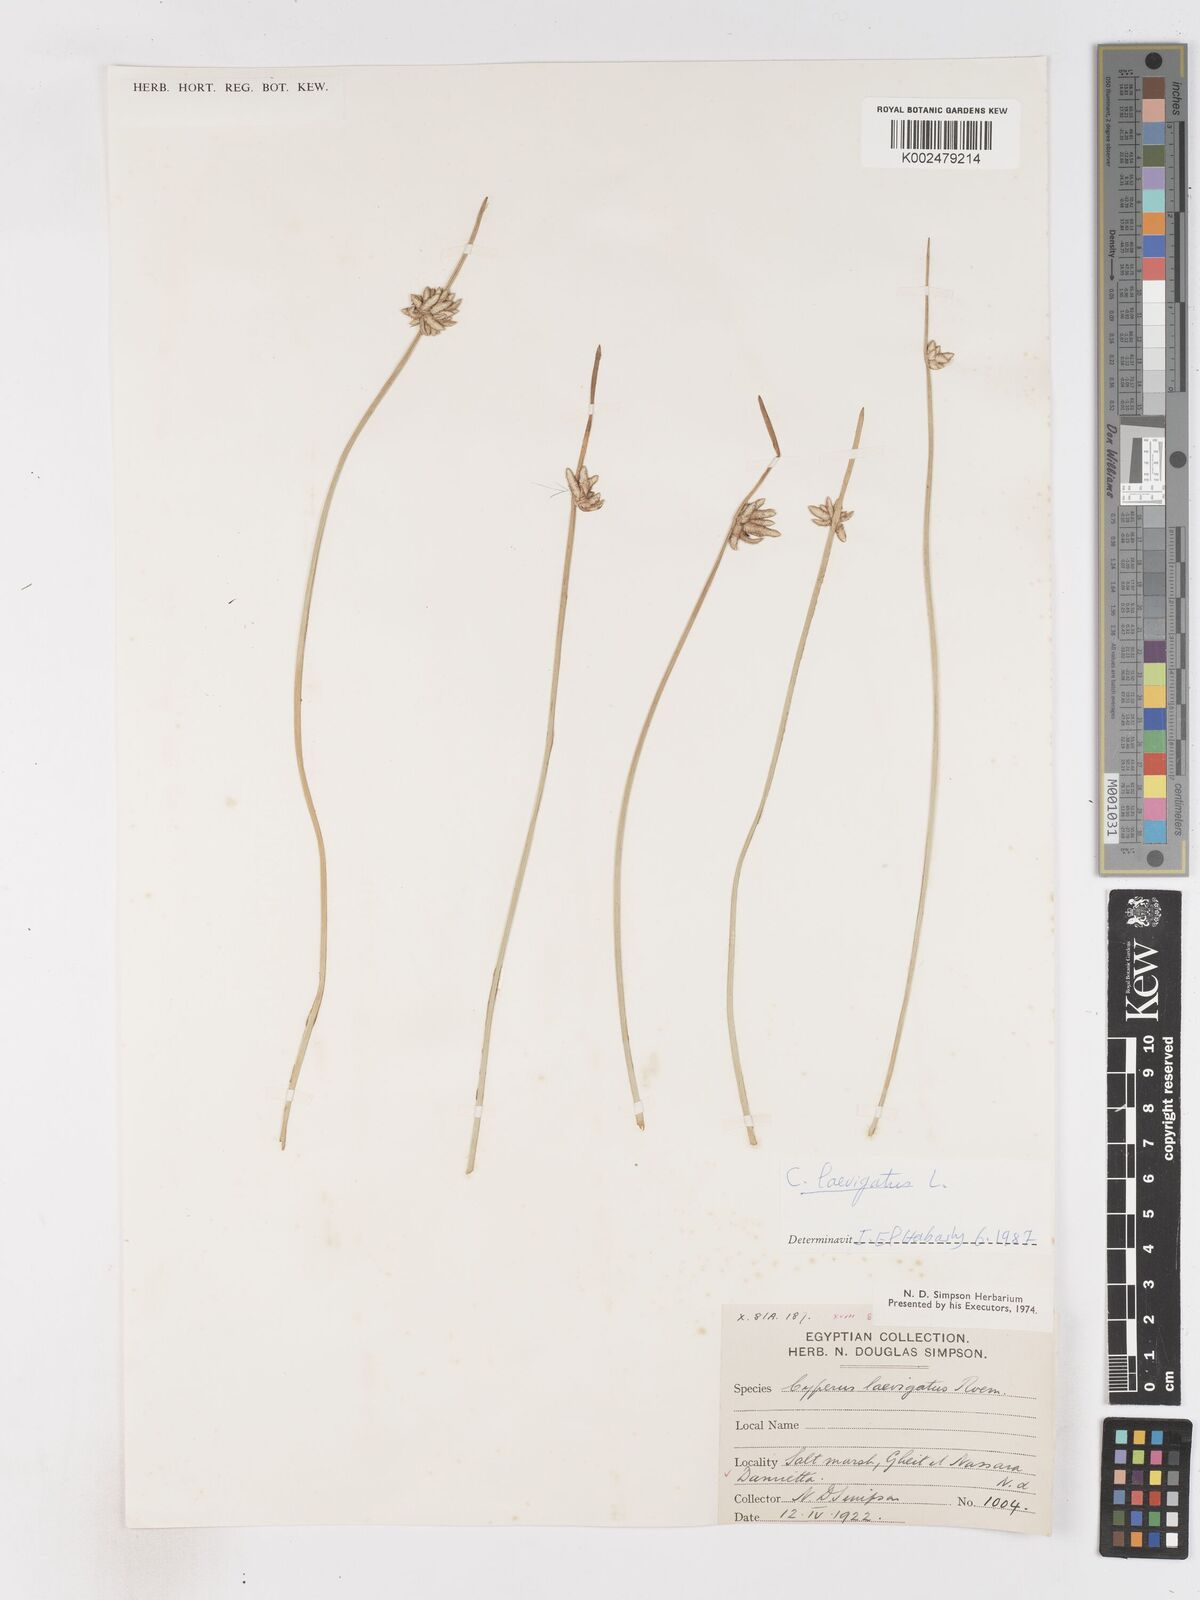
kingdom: Plantae
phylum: Tracheophyta
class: Liliopsida
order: Poales
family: Cyperaceae
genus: Cyperus
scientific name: Cyperus laevigatus
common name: Smooth flat sedge
